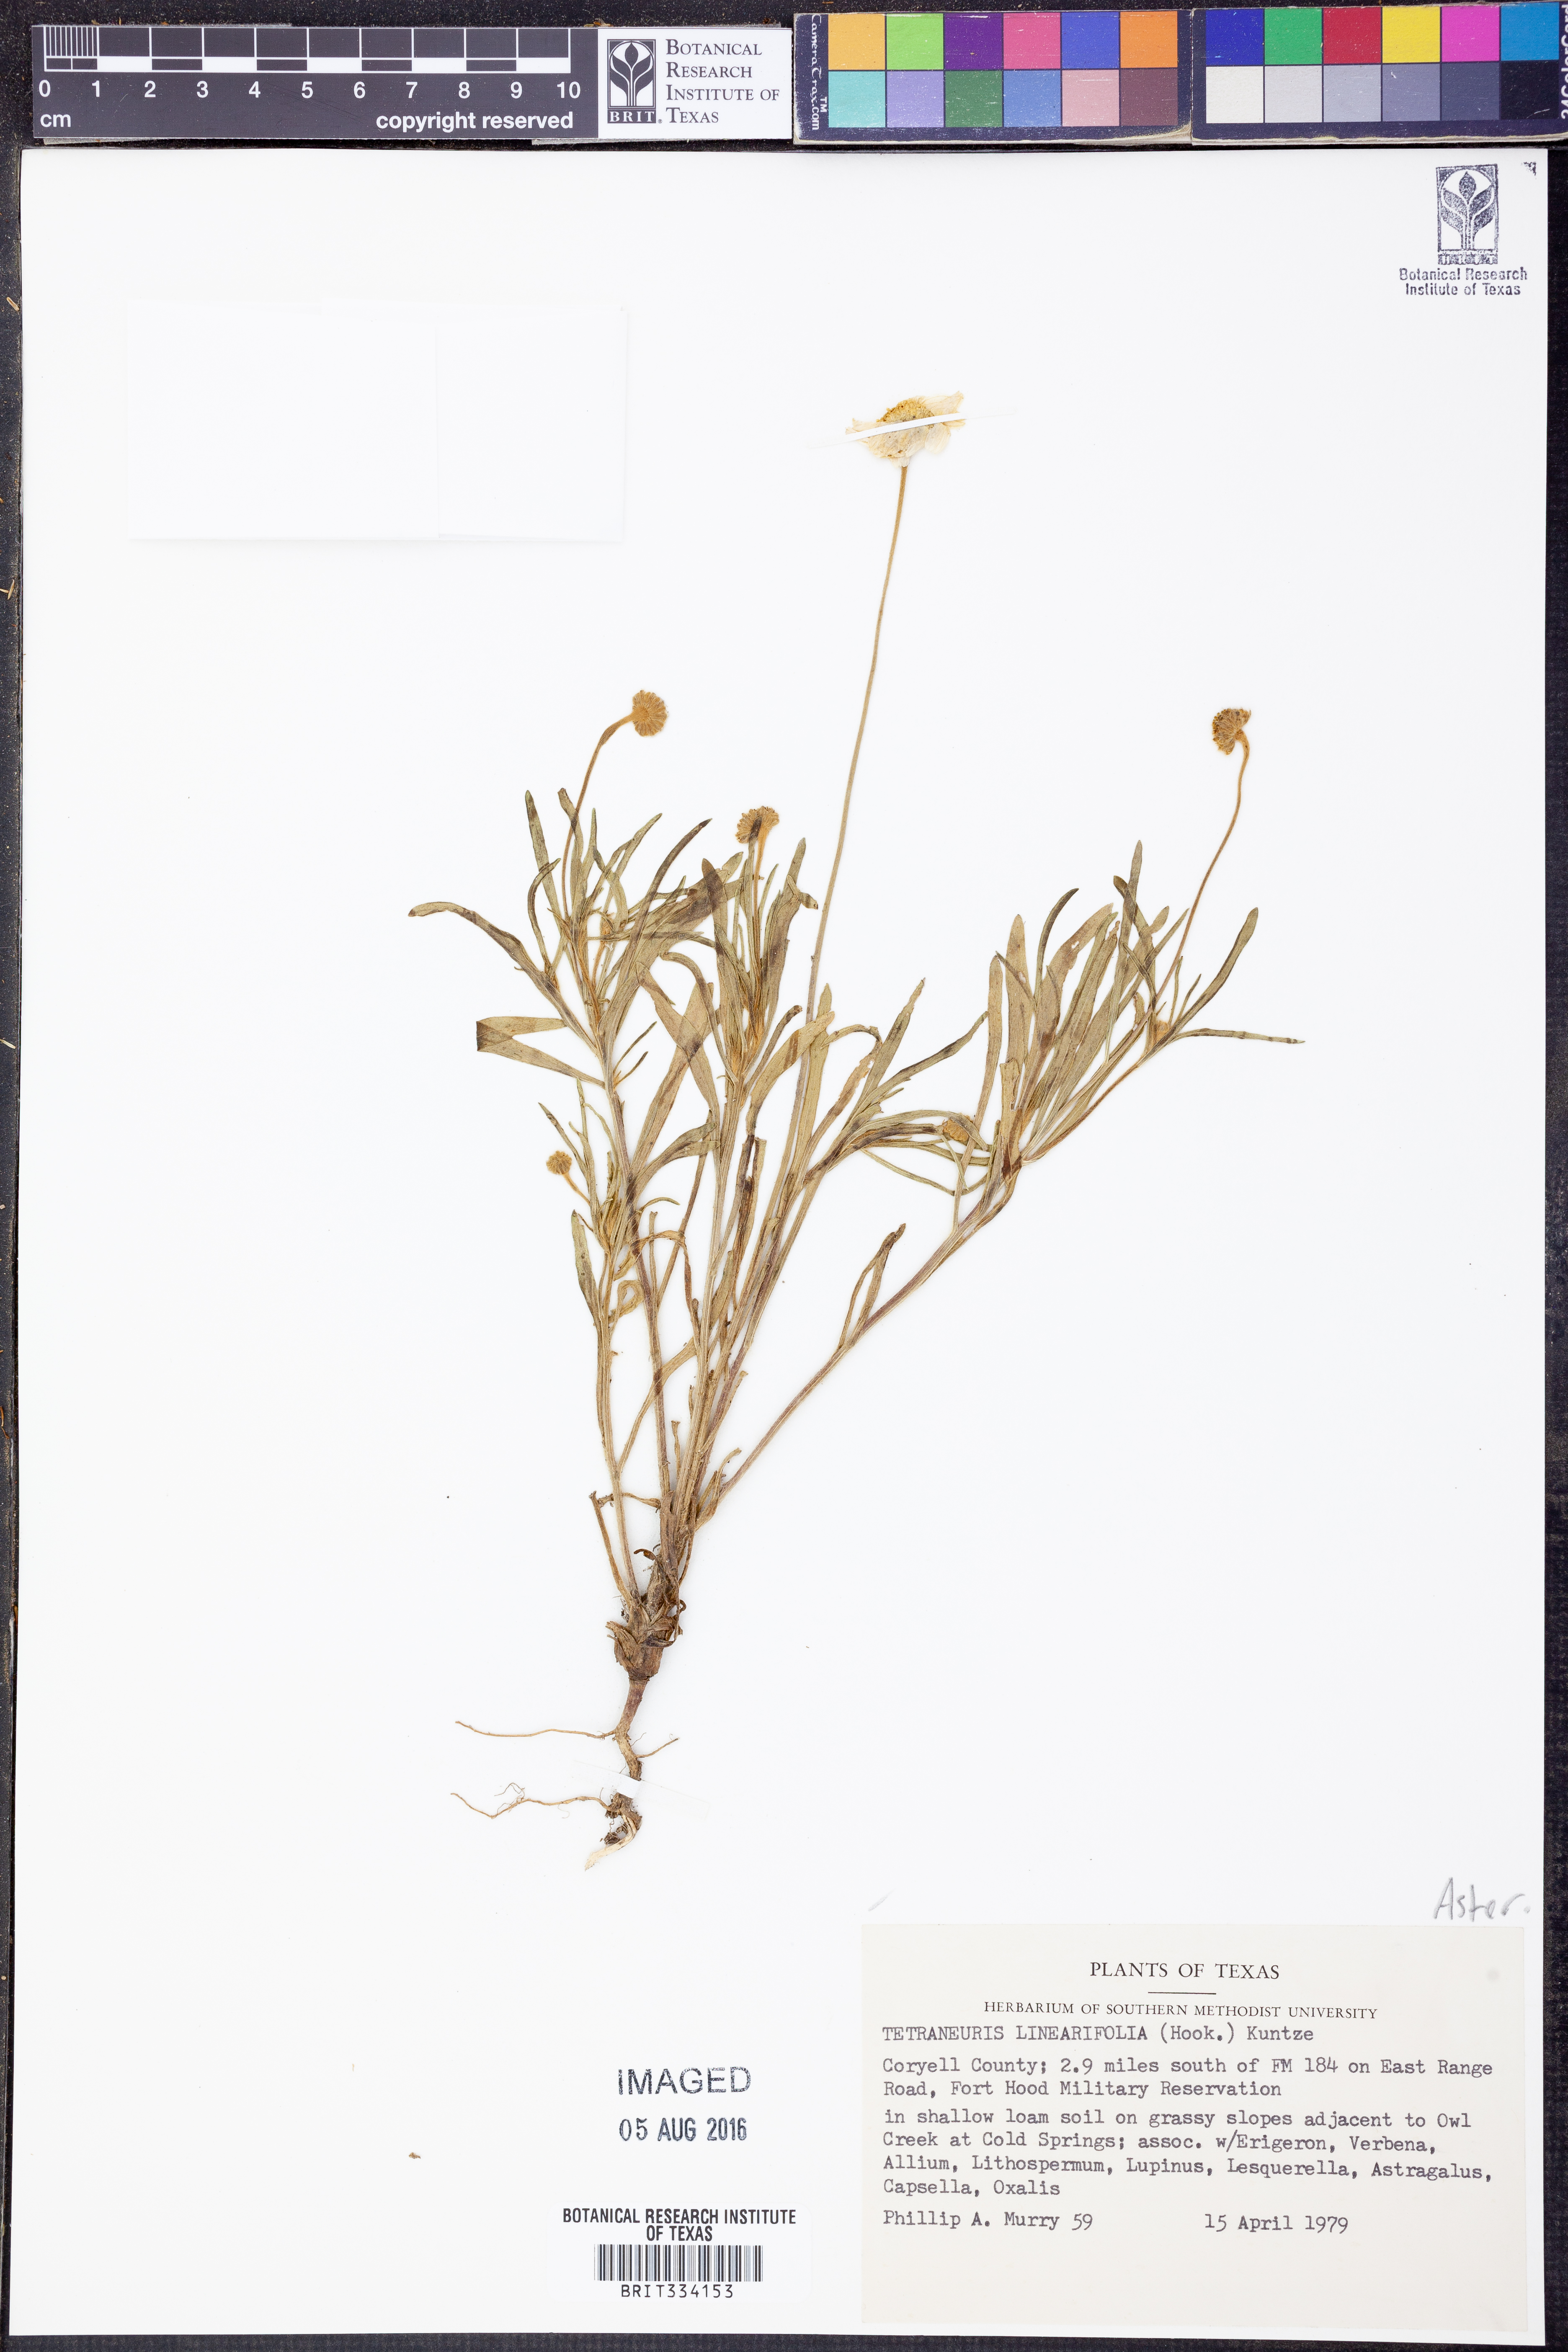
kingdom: Plantae
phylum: Tracheophyta
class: Magnoliopsida
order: Asterales
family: Asteraceae
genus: Tetraneuris
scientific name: Tetraneuris linearifolia
